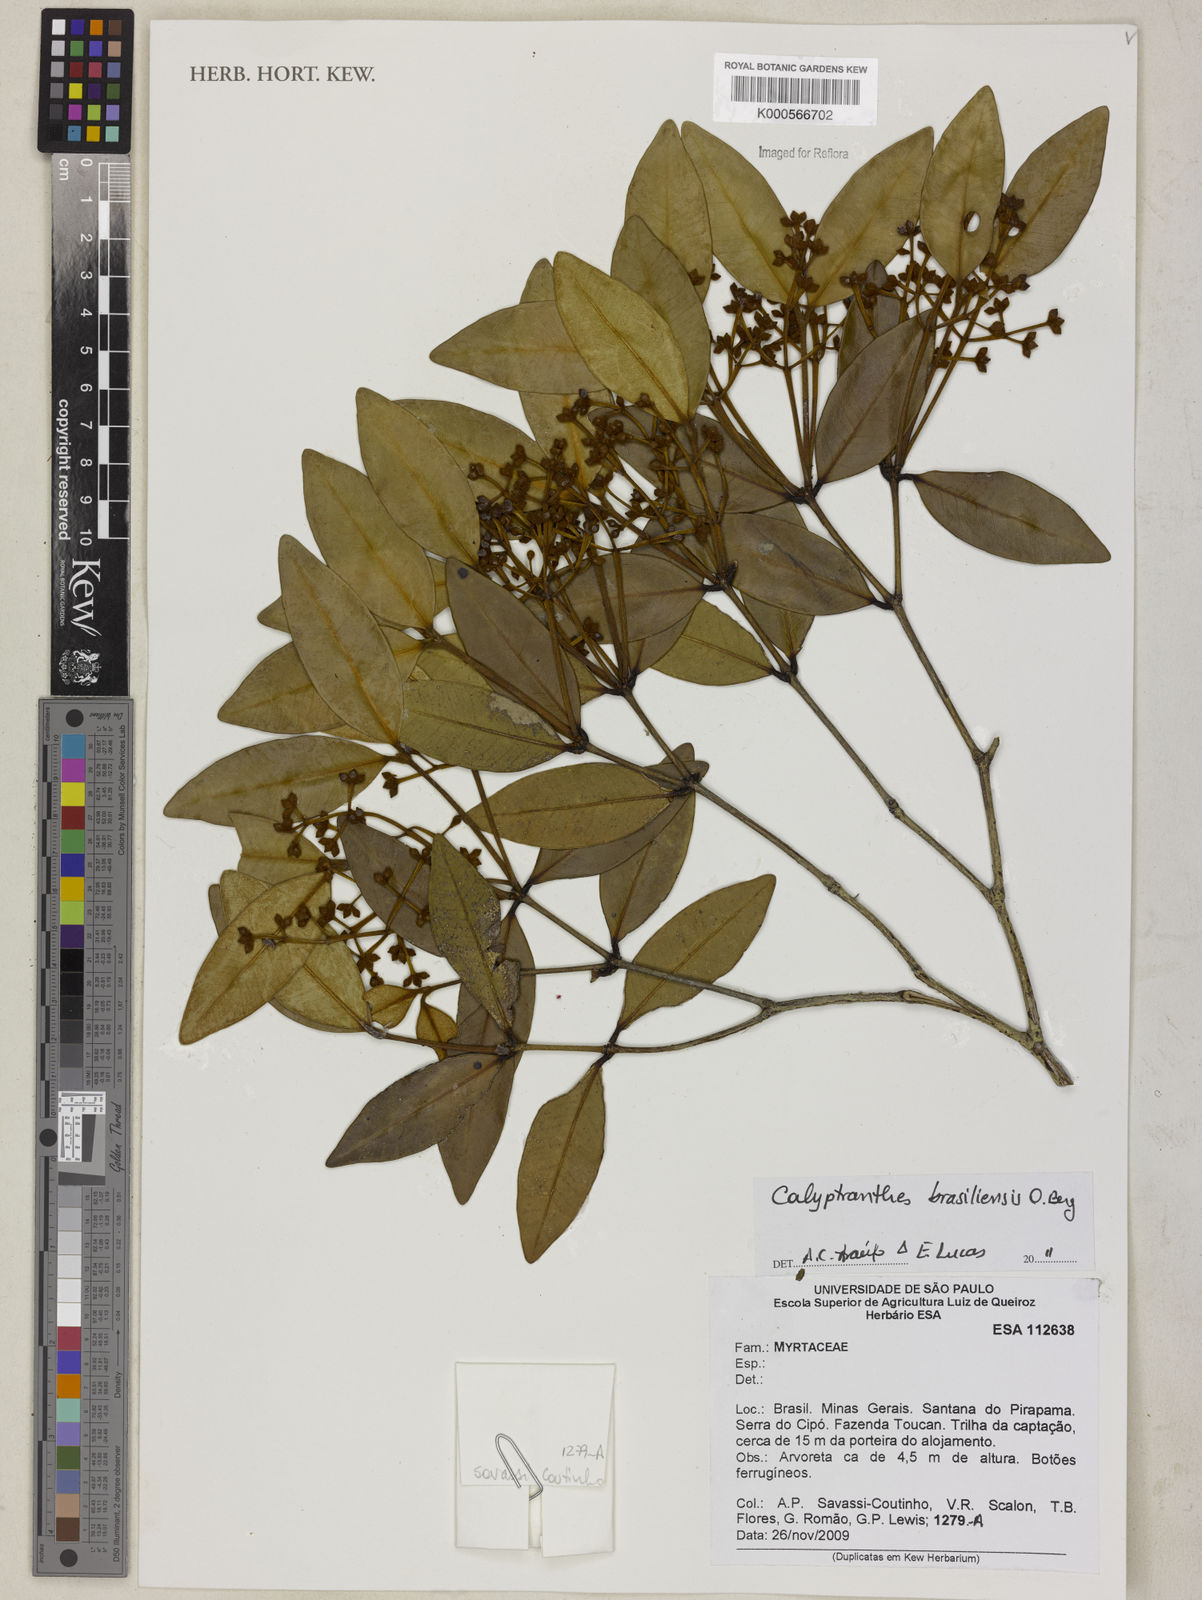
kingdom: Plantae
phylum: Tracheophyta
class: Magnoliopsida
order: Myrtales
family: Myrtaceae
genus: Myrcia
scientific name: Myrcia neobrasiliensis
